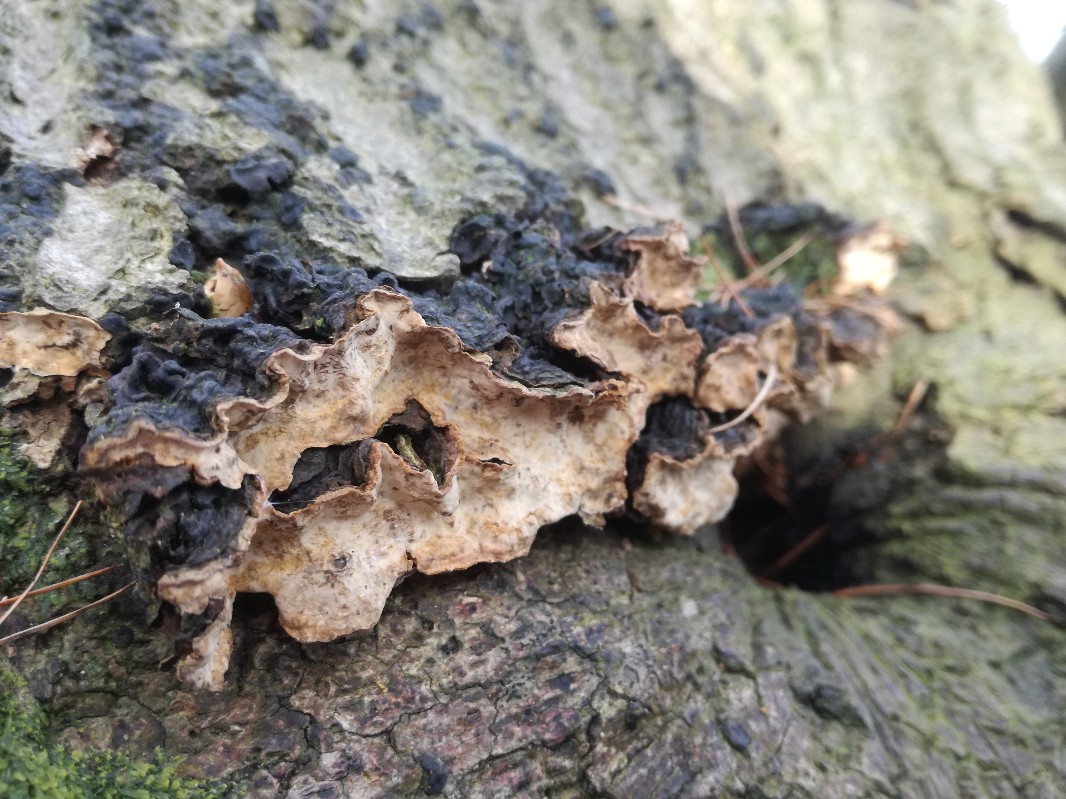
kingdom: Fungi
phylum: Basidiomycota
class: Agaricomycetes
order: Russulales
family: Stereaceae
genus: Stereum
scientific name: Stereum rugosum
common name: rynket lædersvamp
